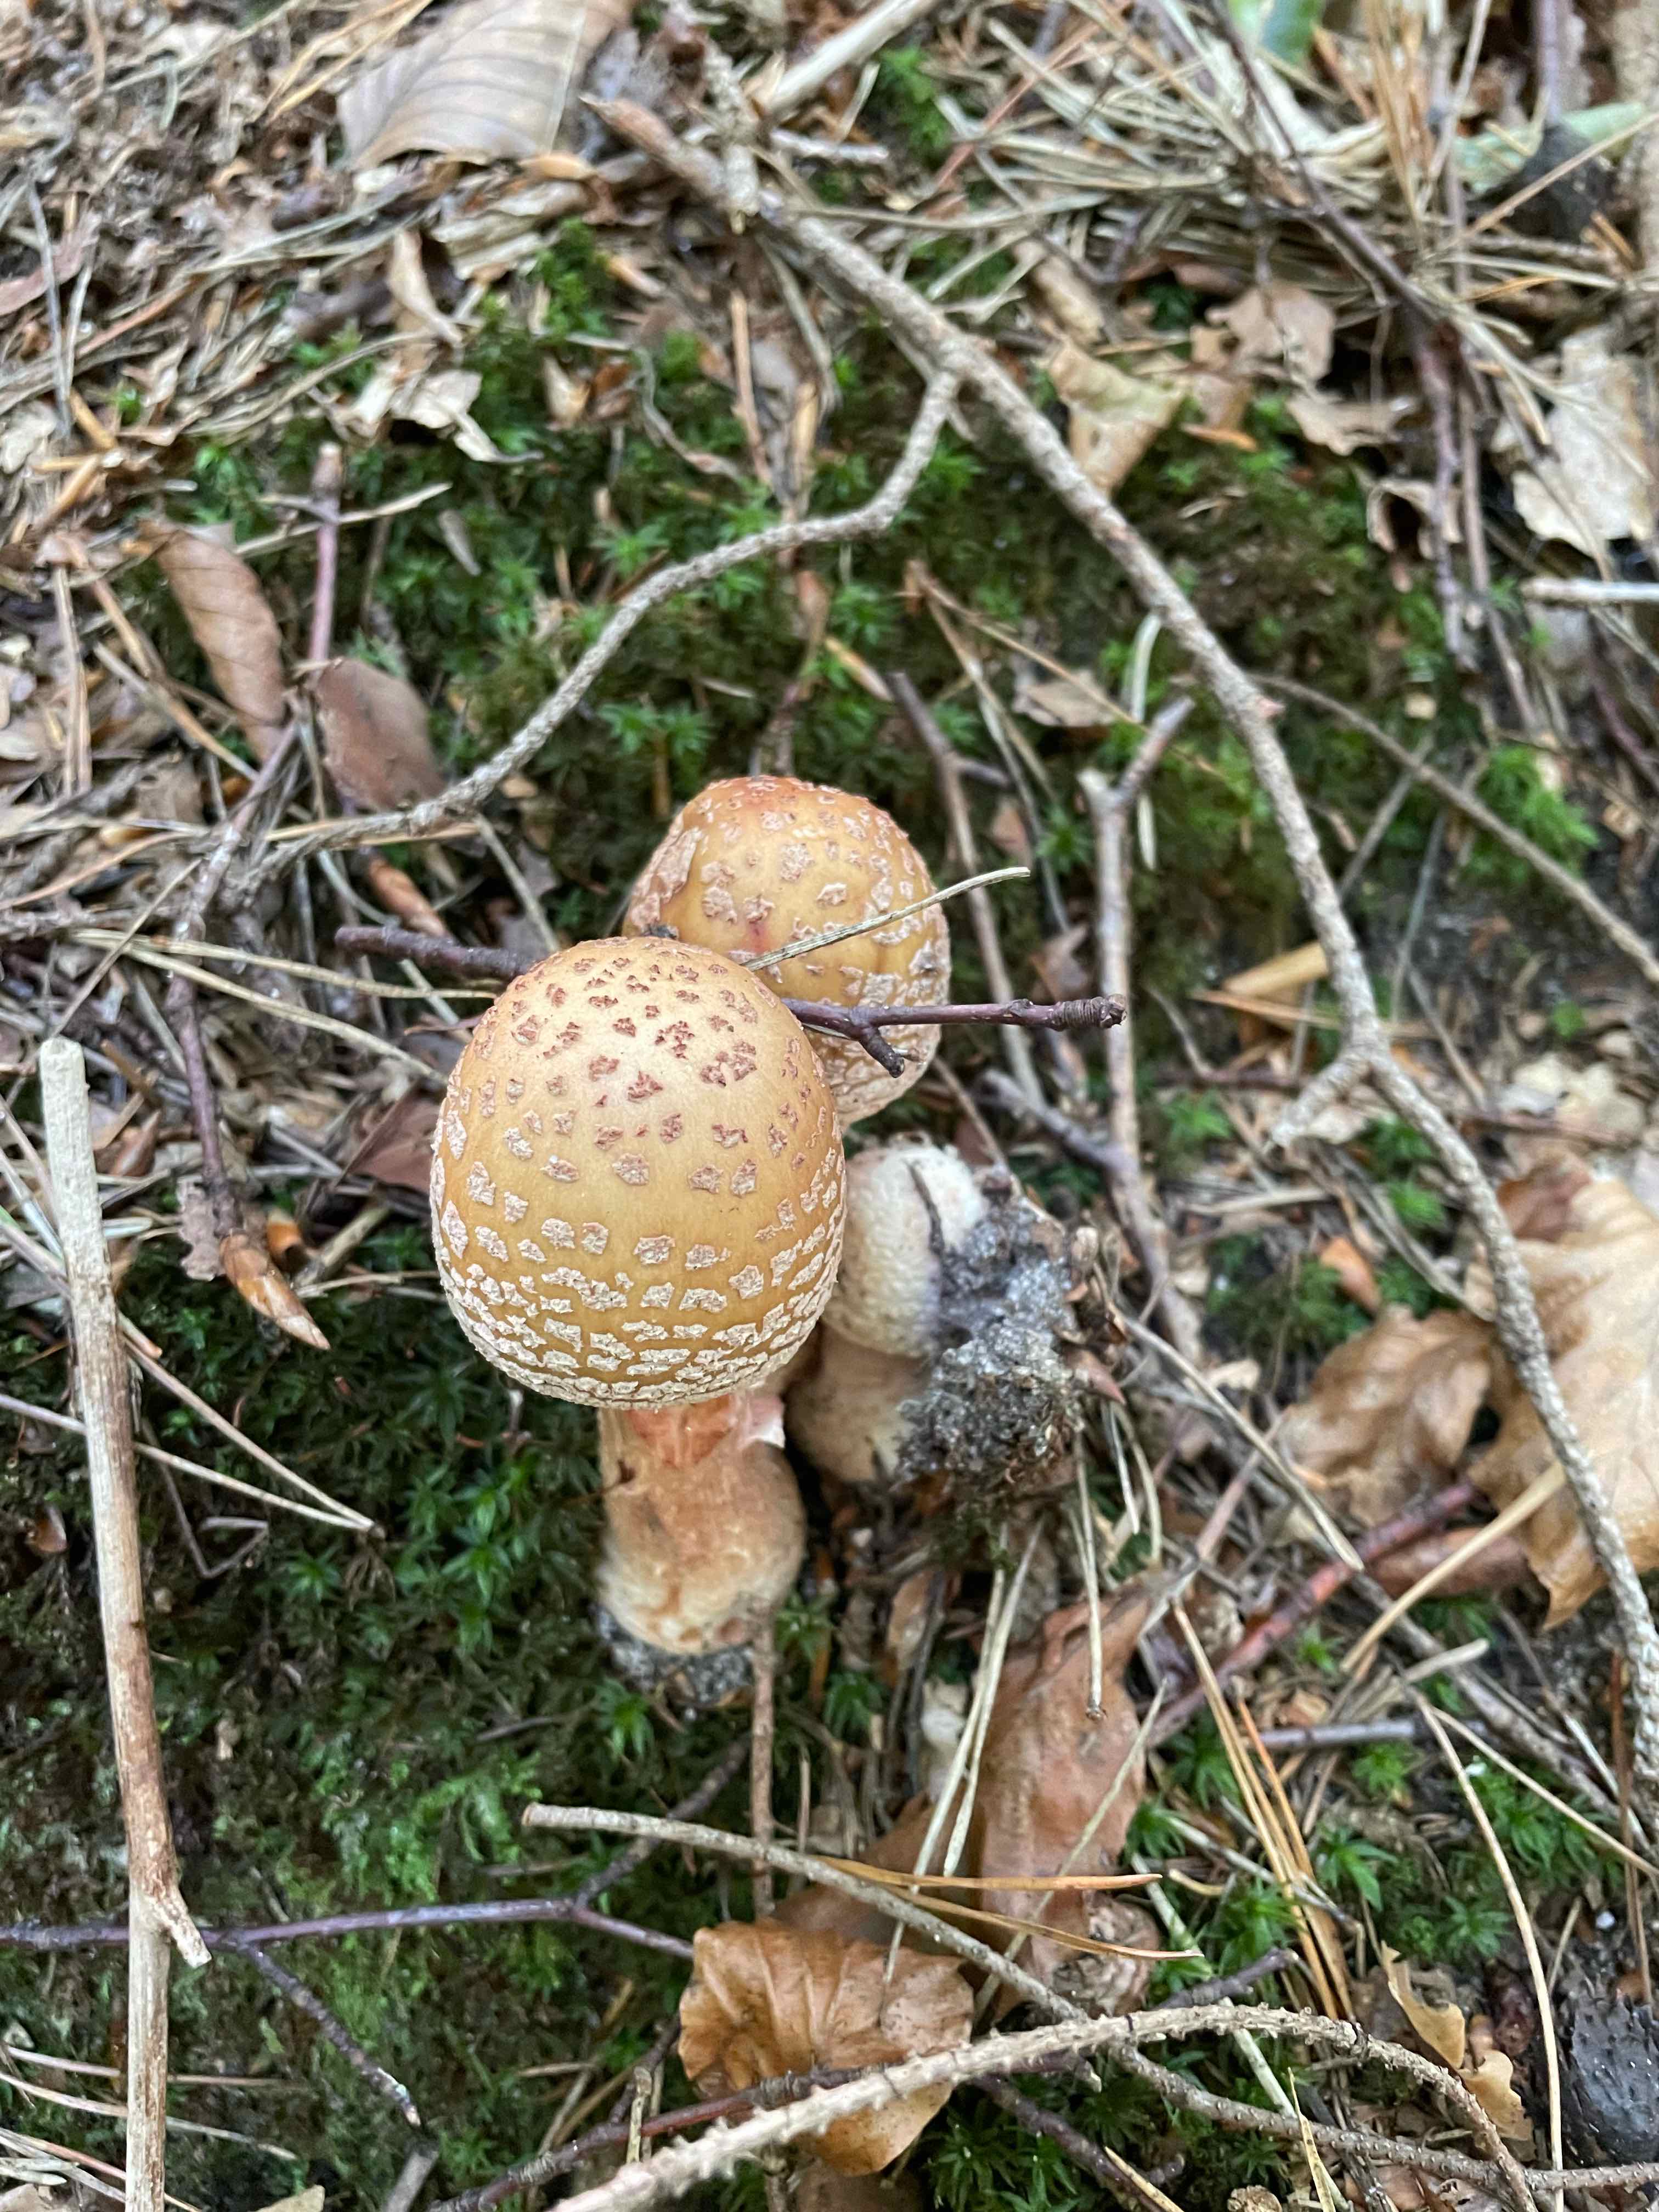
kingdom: Fungi
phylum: Basidiomycota
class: Agaricomycetes
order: Agaricales
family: Amanitaceae
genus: Amanita
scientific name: Amanita rubescens
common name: rødmende fluesvamp
